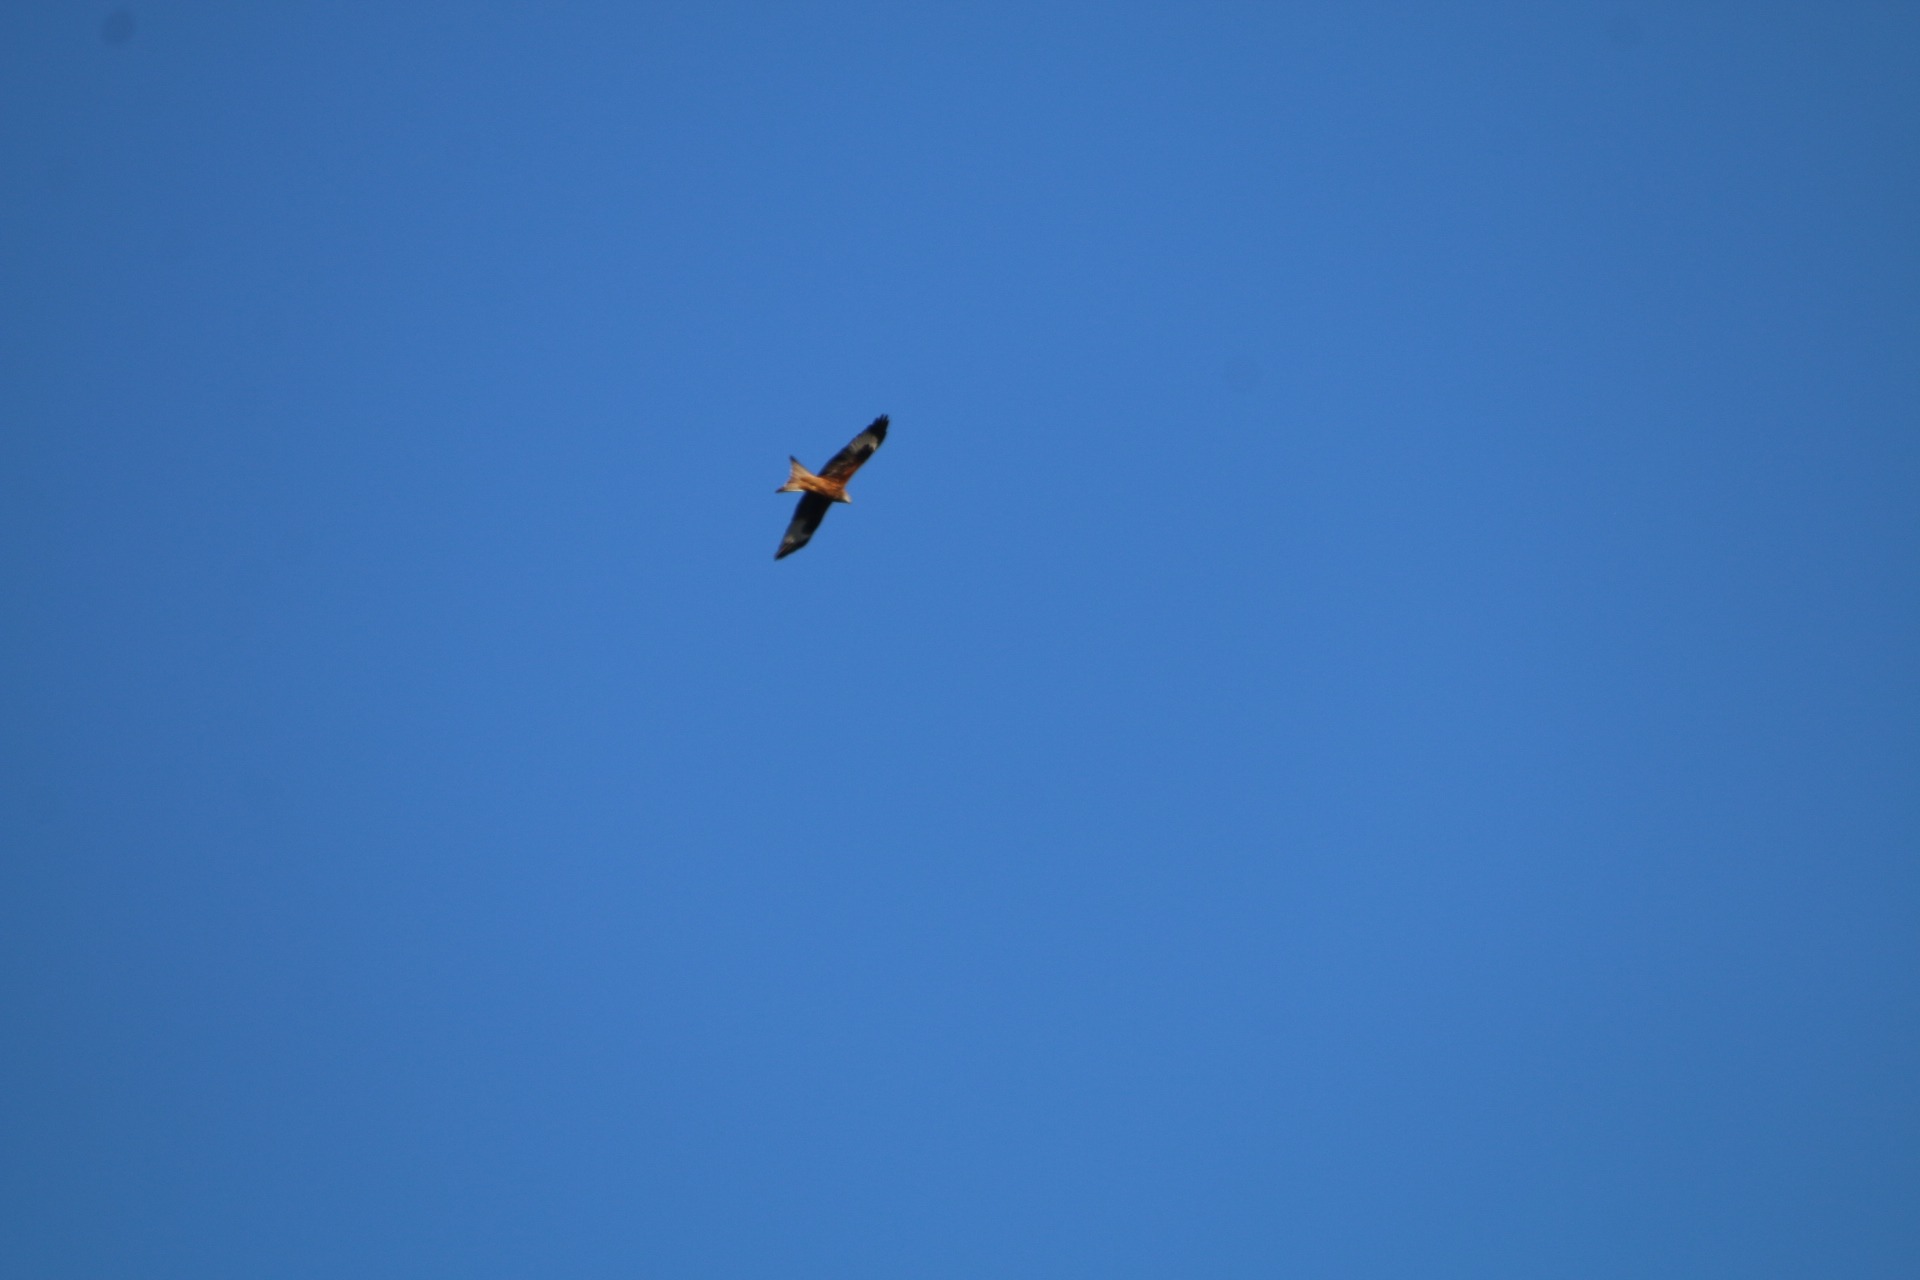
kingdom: Animalia
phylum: Chordata
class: Aves
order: Accipitriformes
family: Accipitridae
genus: Milvus
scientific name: Milvus milvus
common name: Rød glente
